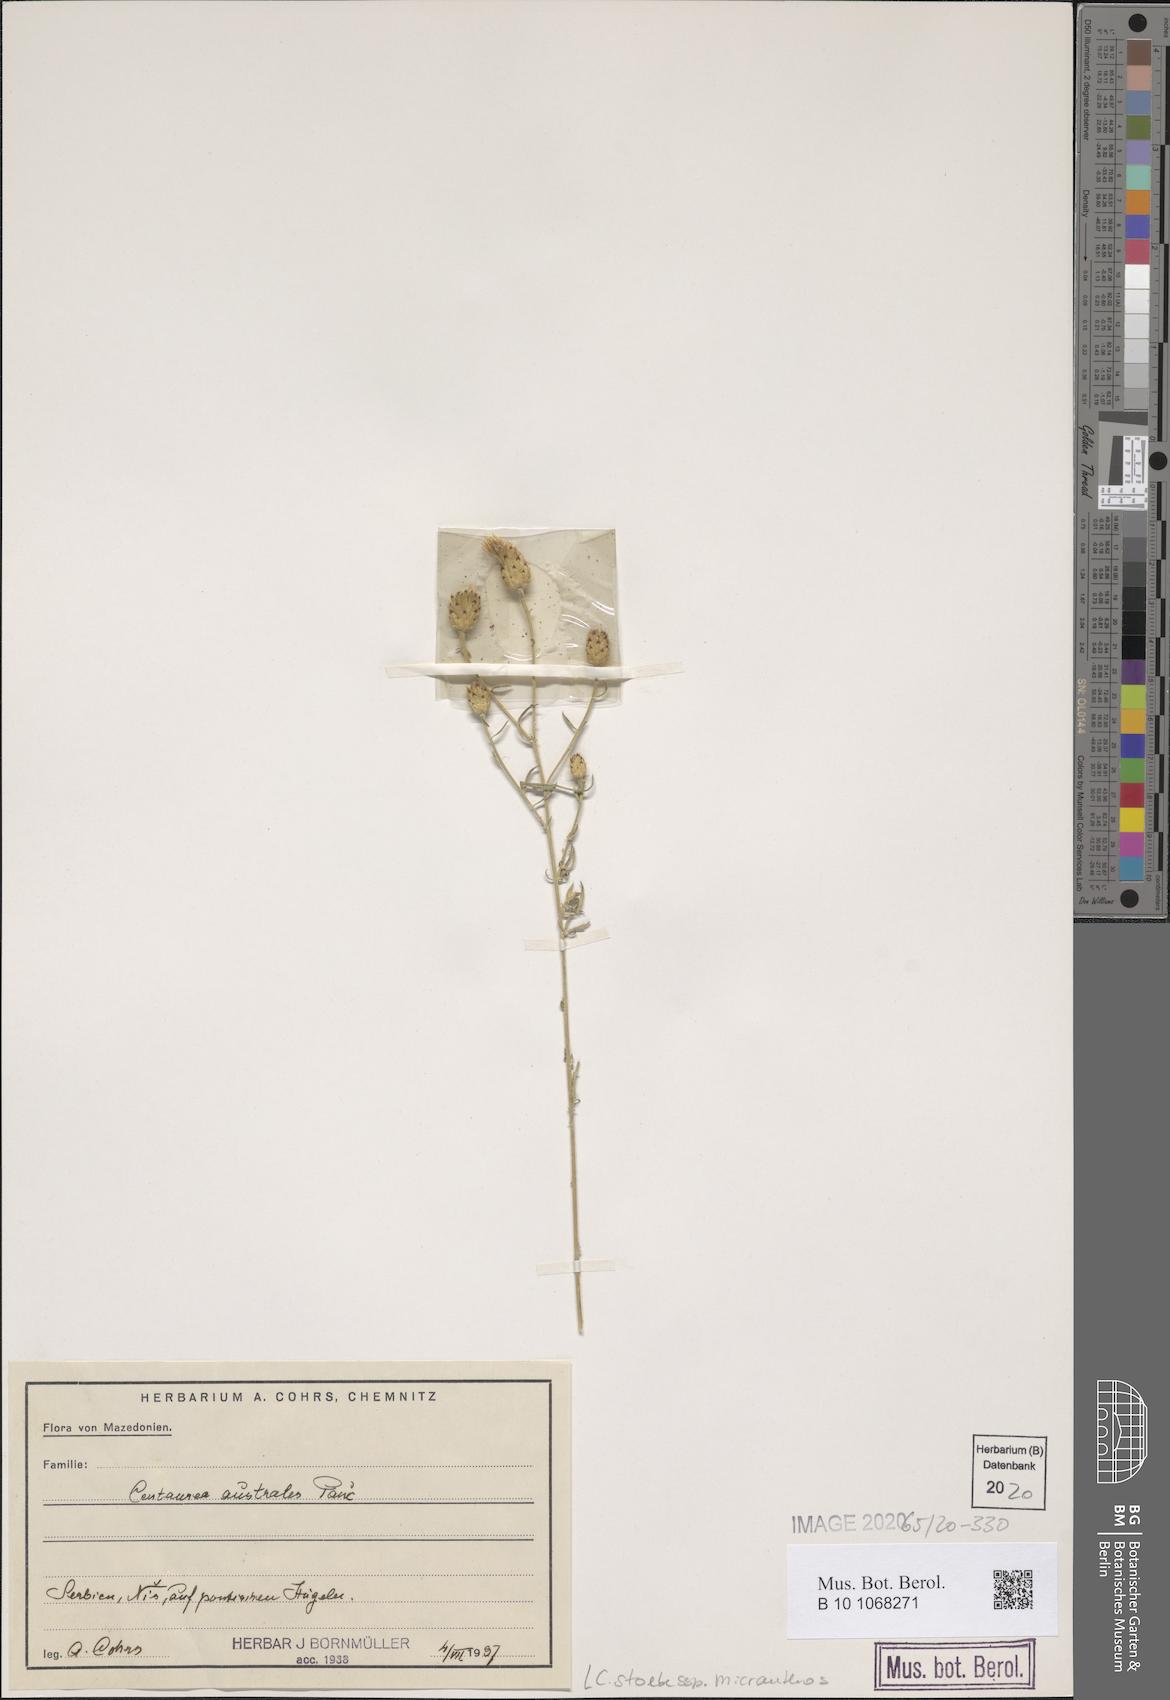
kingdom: Plantae
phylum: Tracheophyta
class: Magnoliopsida
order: Asterales
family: Asteraceae
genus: Centaurea
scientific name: Centaurea australis
